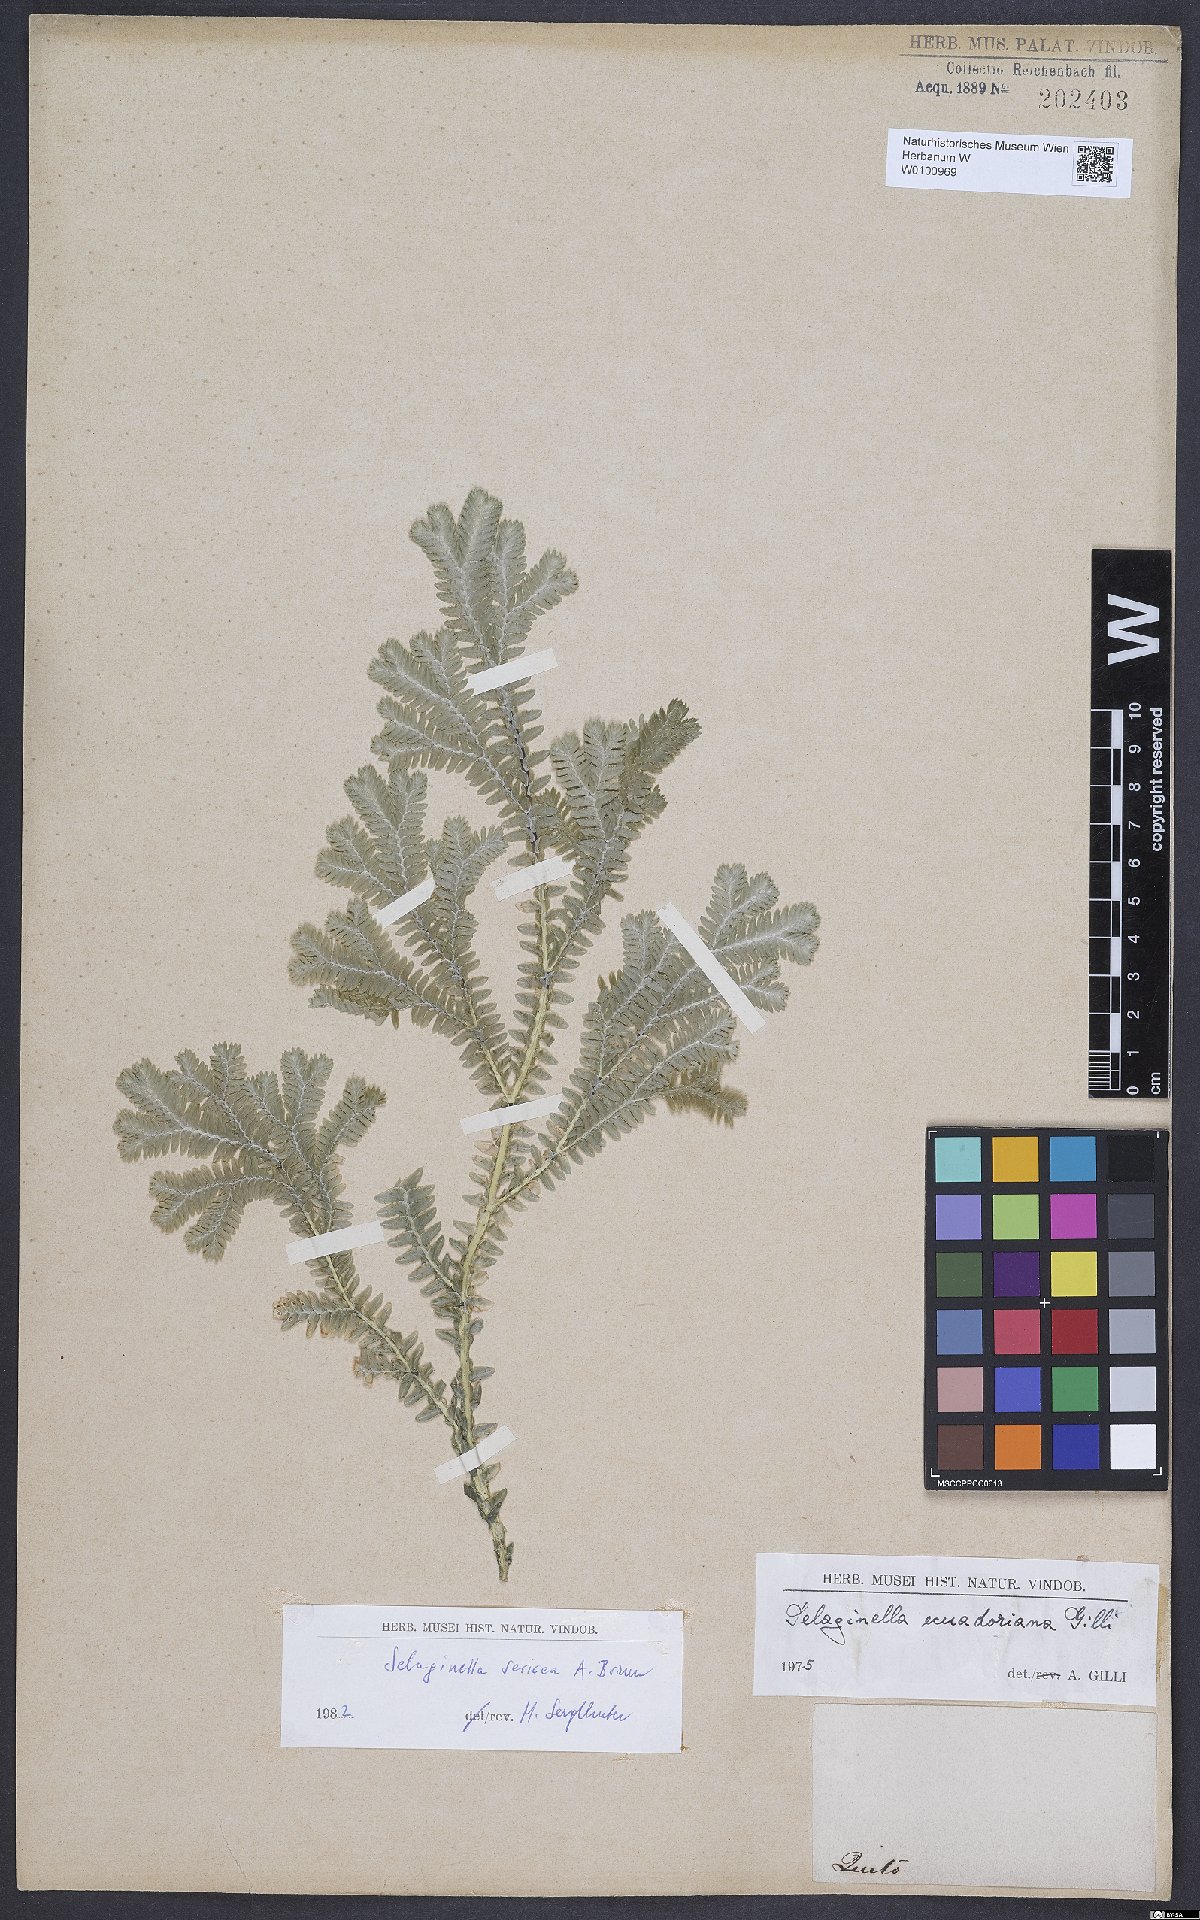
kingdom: Plantae
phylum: Tracheophyta
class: Lycopodiopsida
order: Selaginellales
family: Selaginellaceae
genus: Selaginella
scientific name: Selaginella ecuadoriana
